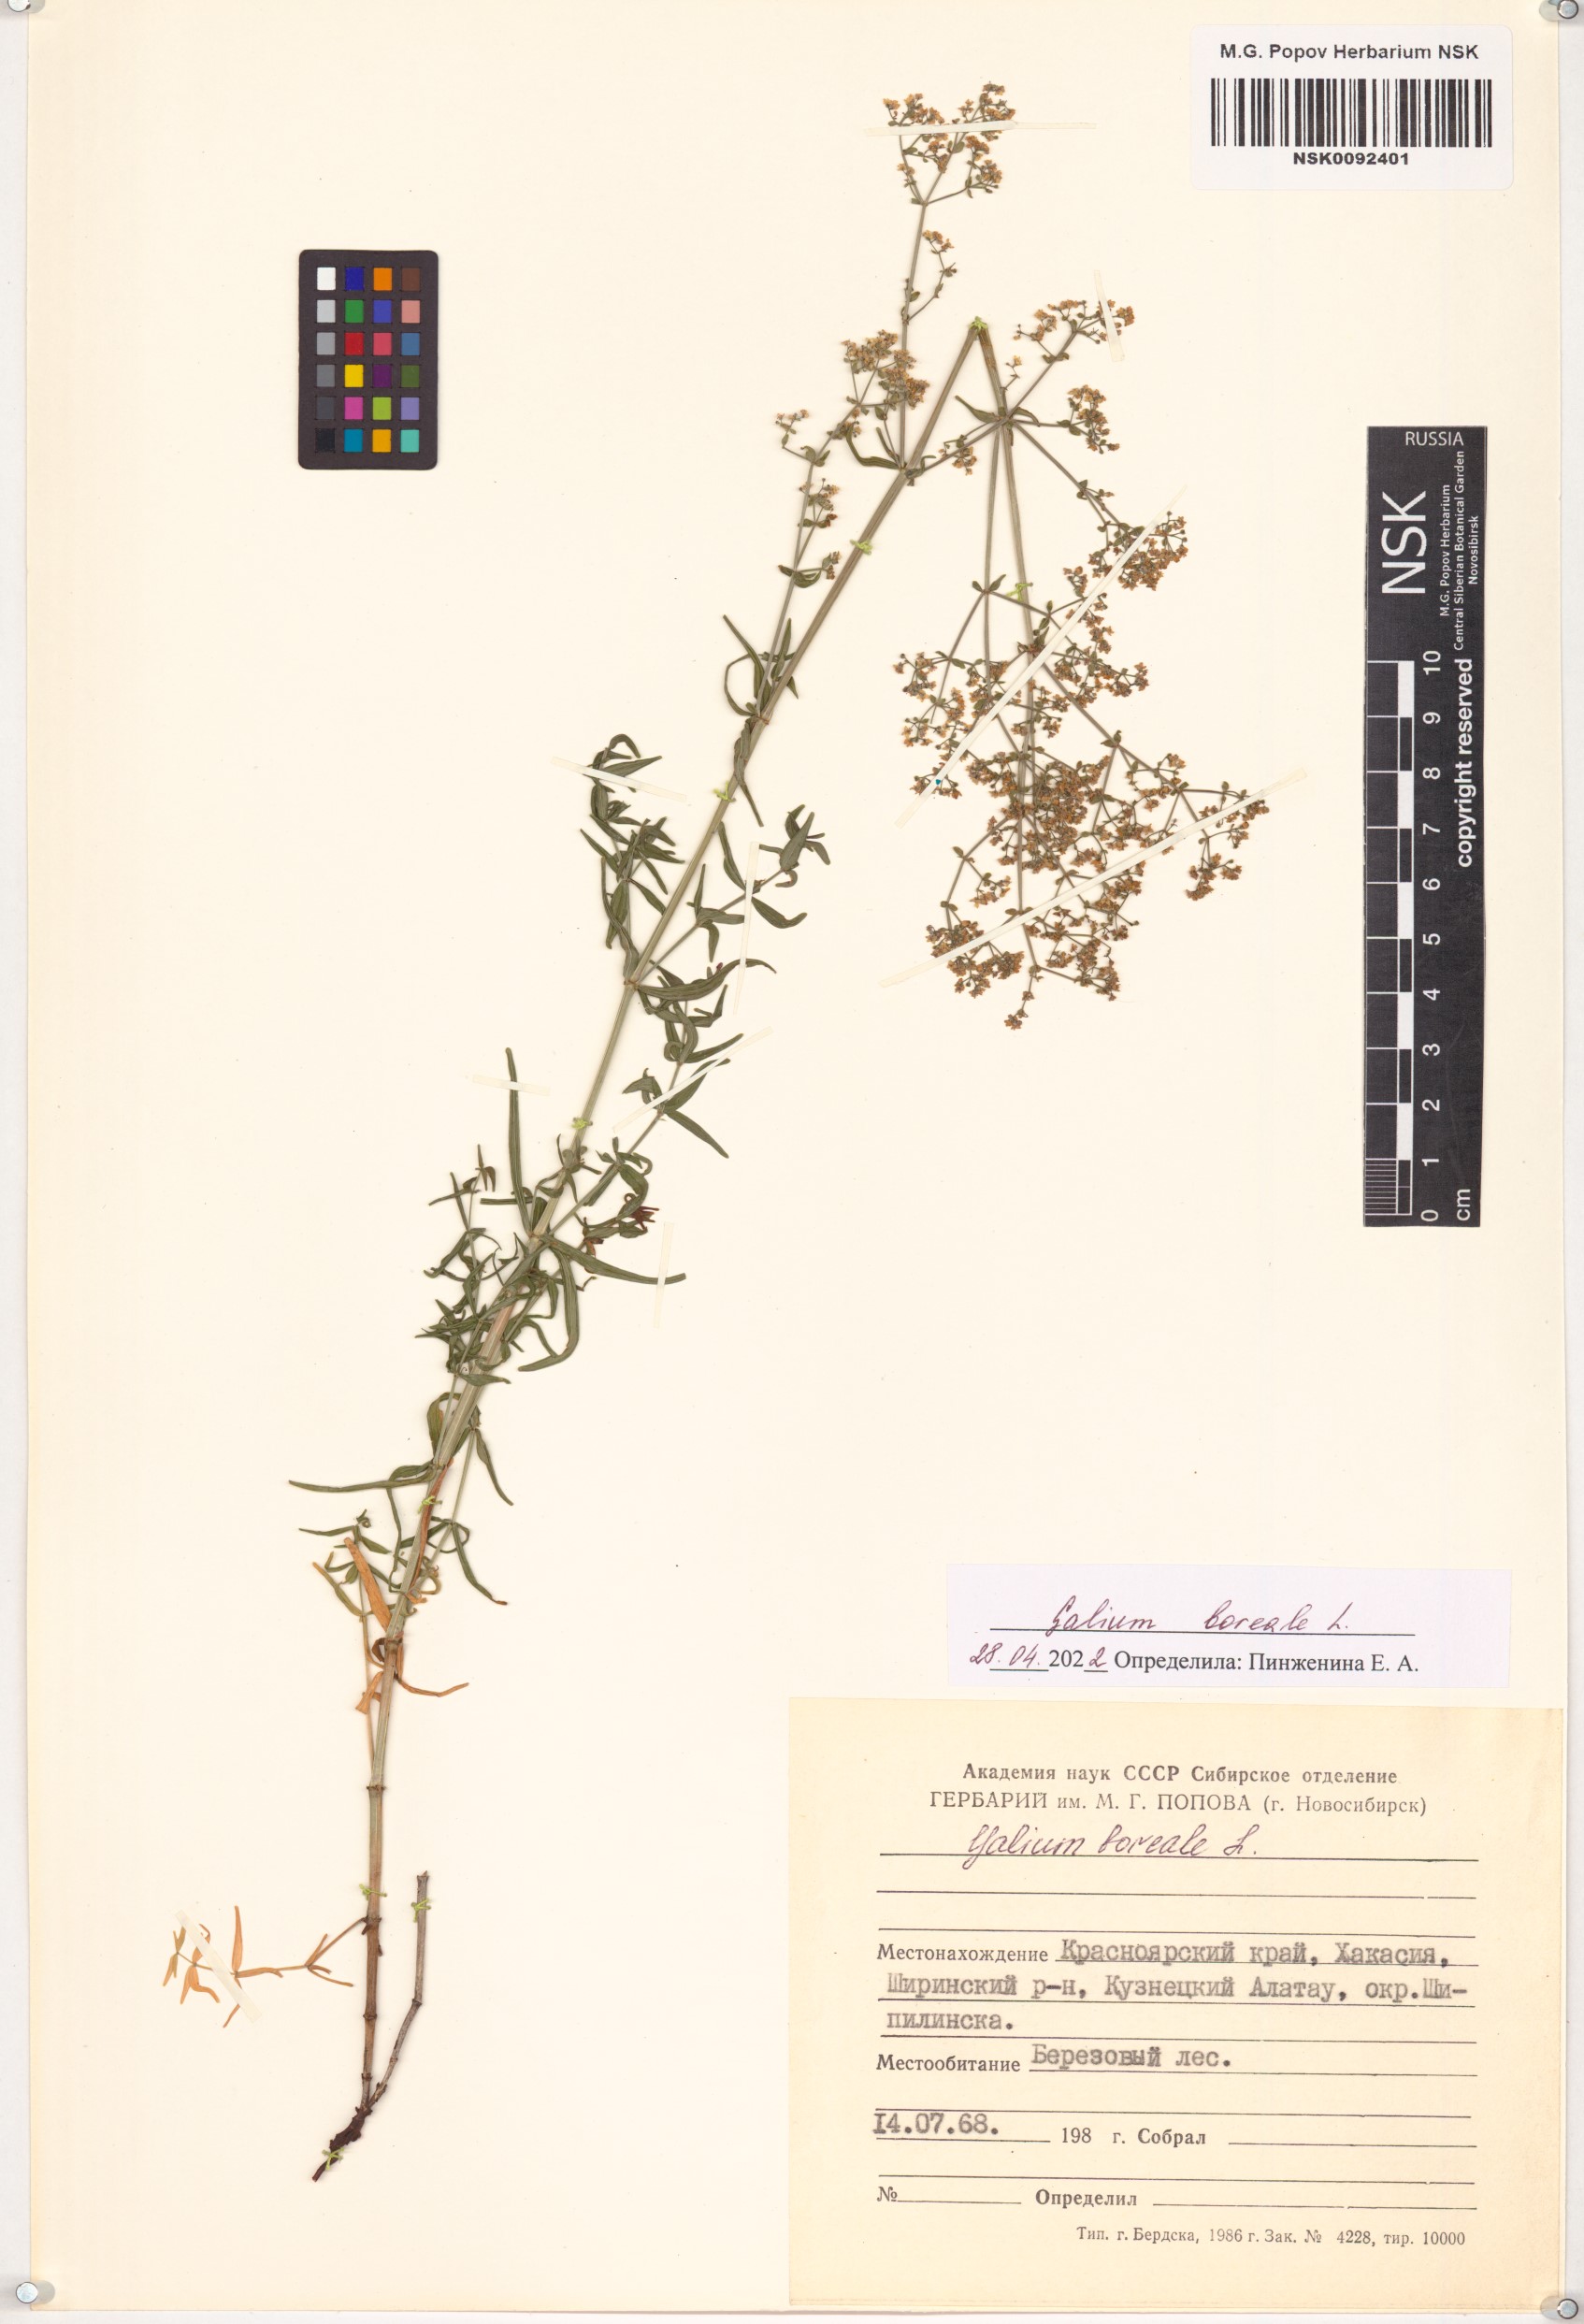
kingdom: Plantae
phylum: Tracheophyta
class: Magnoliopsida
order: Gentianales
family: Rubiaceae
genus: Galium
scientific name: Galium boreale
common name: Northern bedstraw
